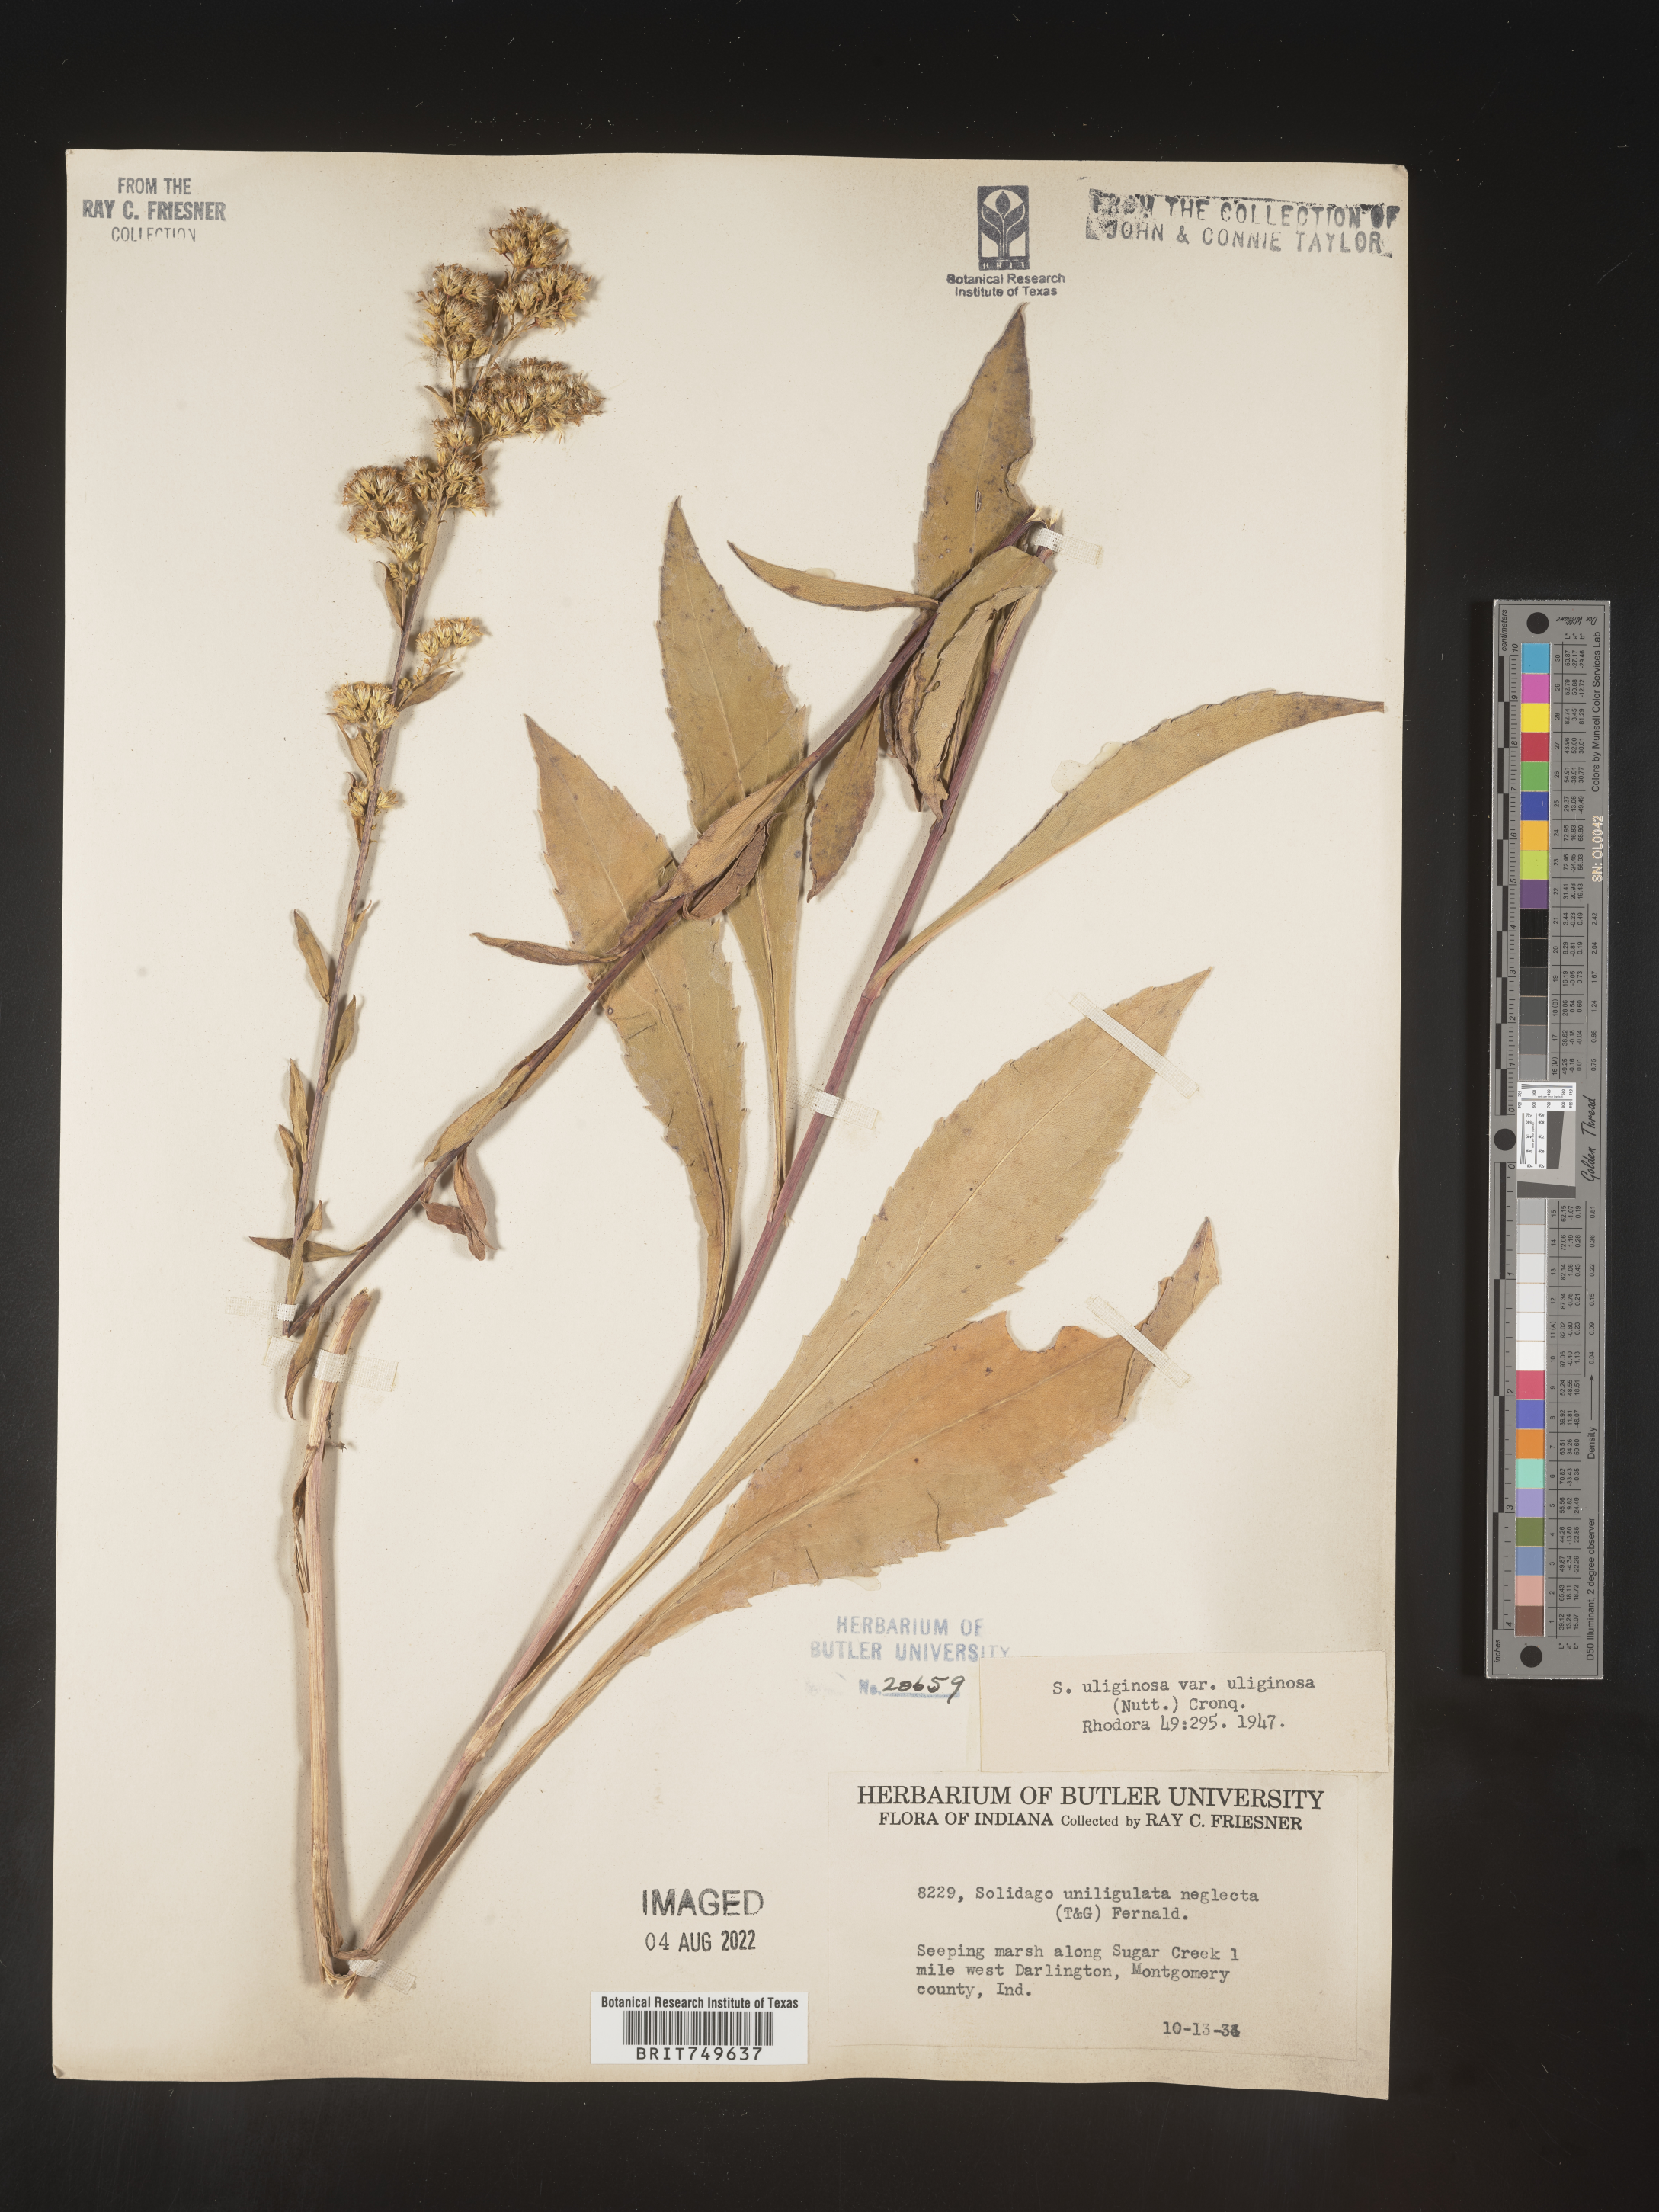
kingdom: Plantae
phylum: Tracheophyta
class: Magnoliopsida
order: Asterales
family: Asteraceae
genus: Solidago
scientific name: Solidago uliginosa
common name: Bog goldenrod
